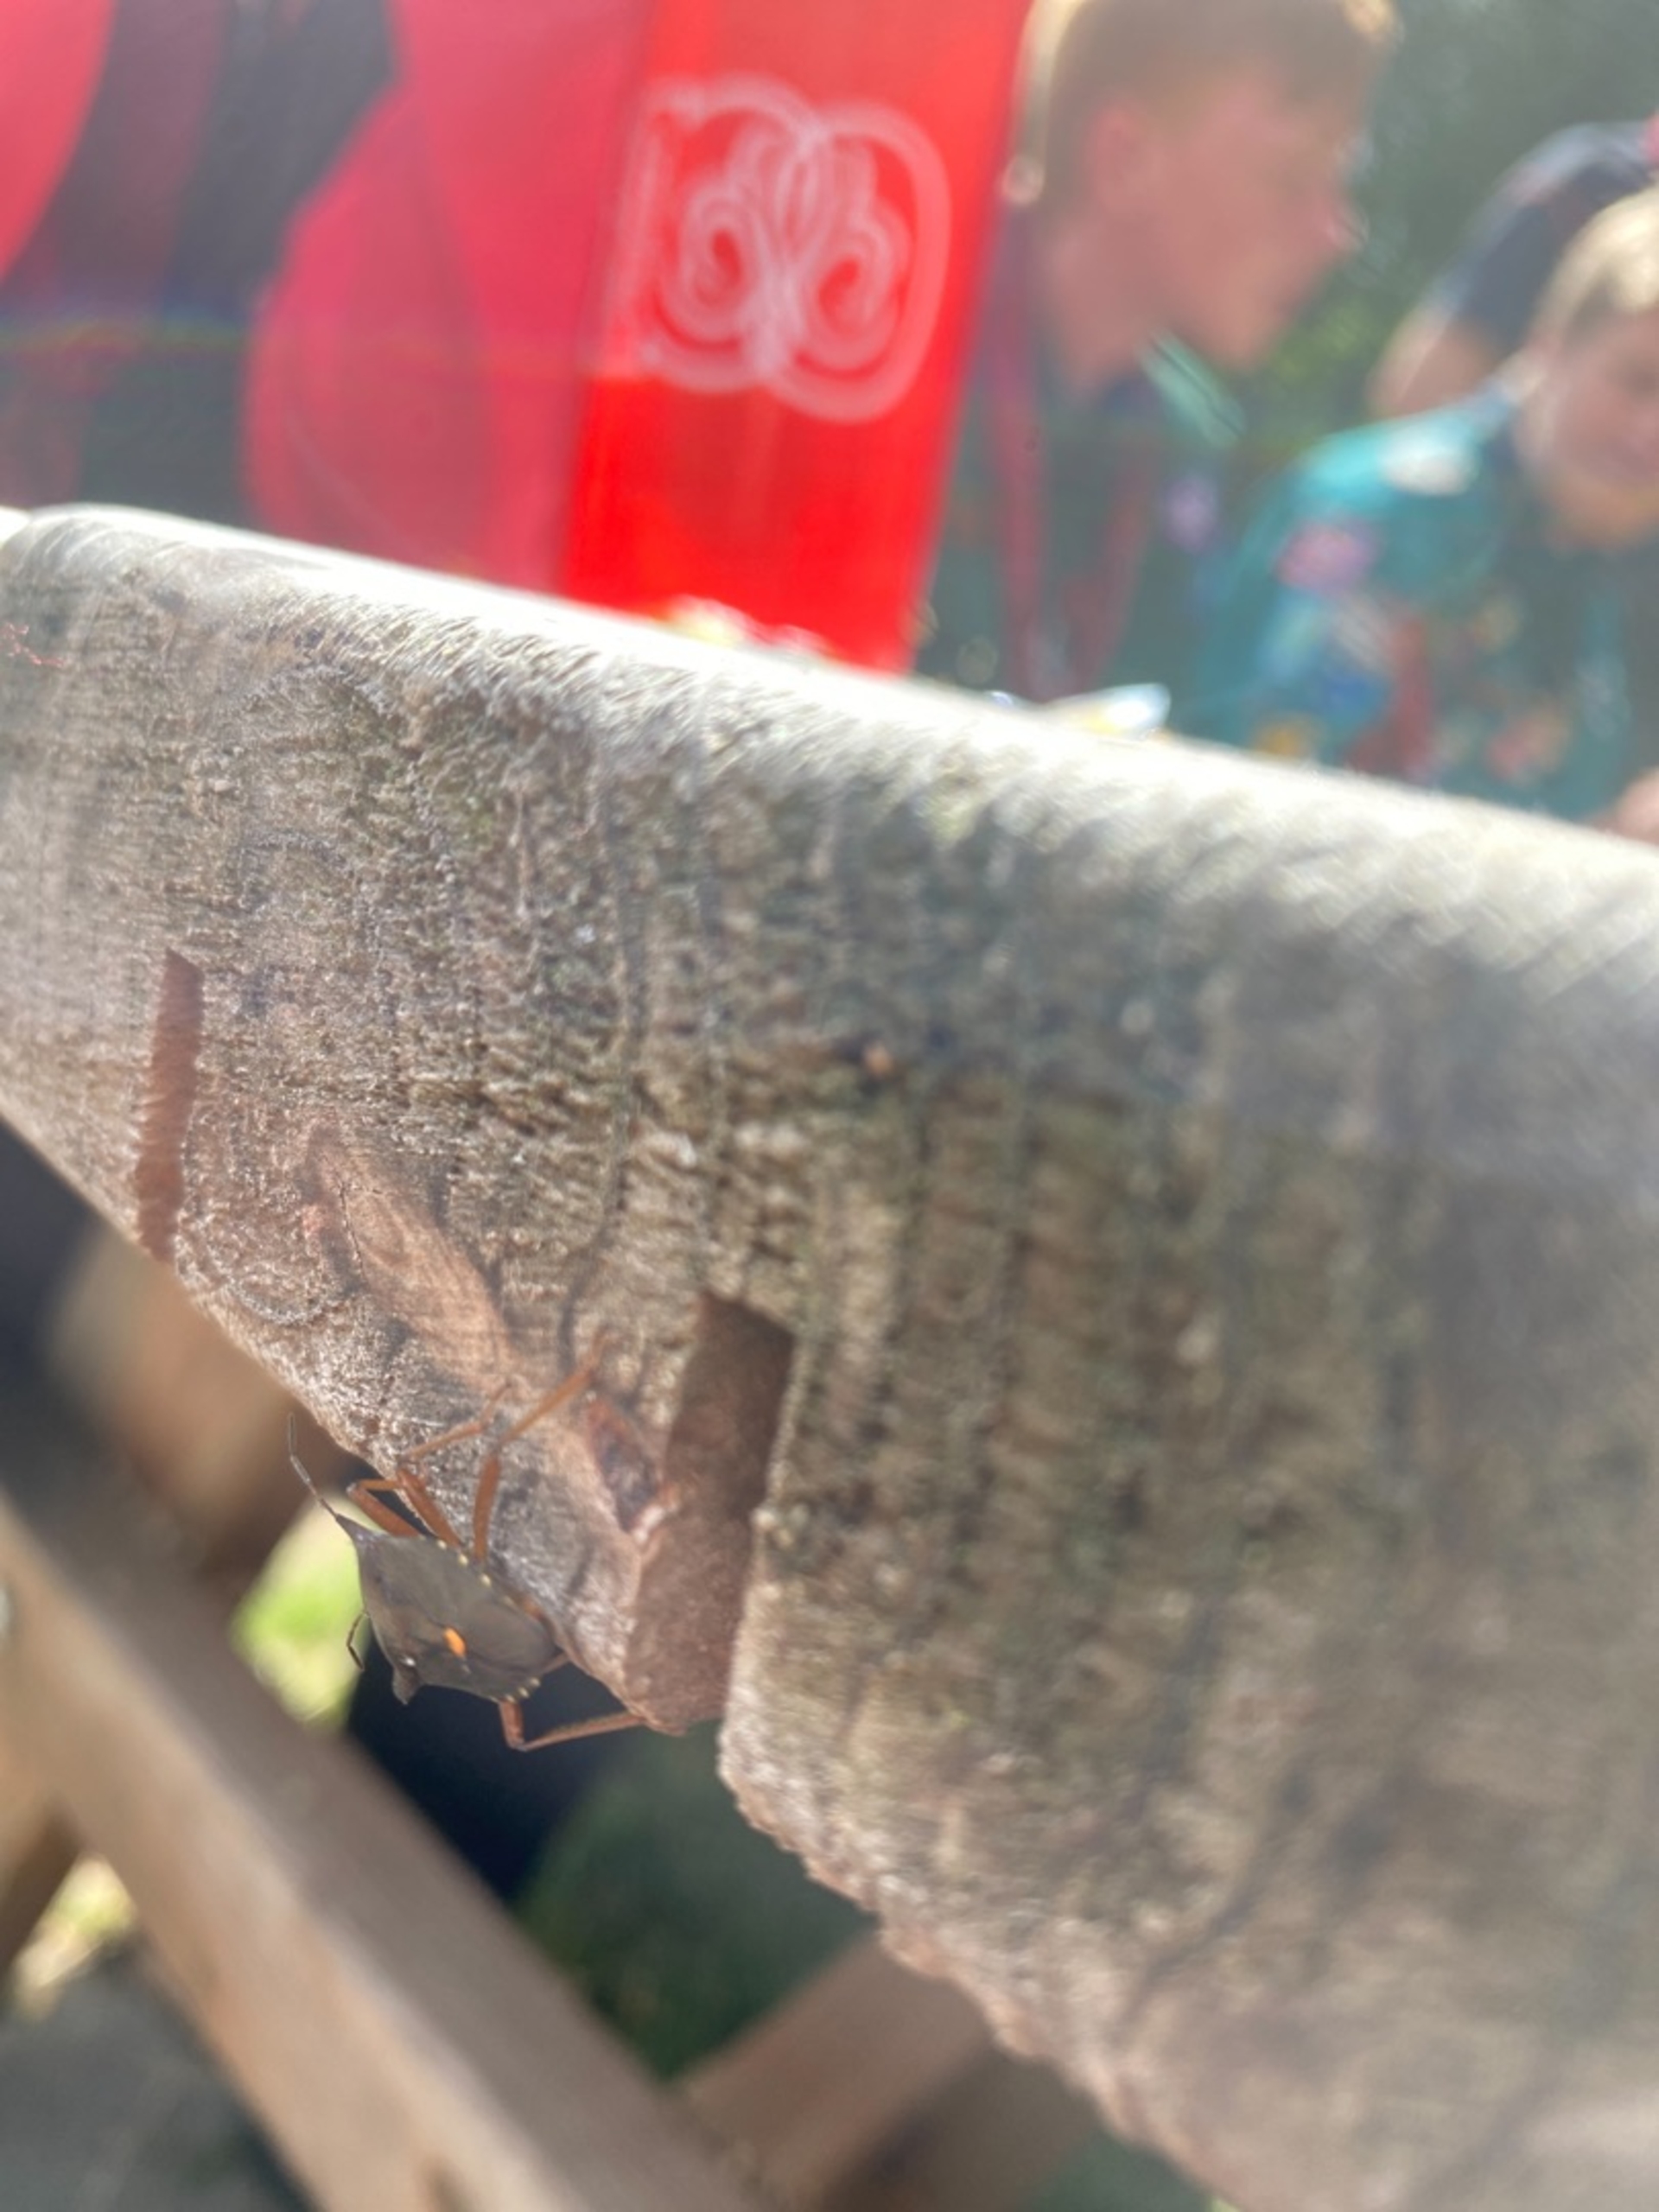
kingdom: Animalia
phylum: Arthropoda
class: Insecta
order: Hemiptera
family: Pentatomidae
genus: Pentatoma
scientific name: Pentatoma rufipes
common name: Rødbenet bredtæge
